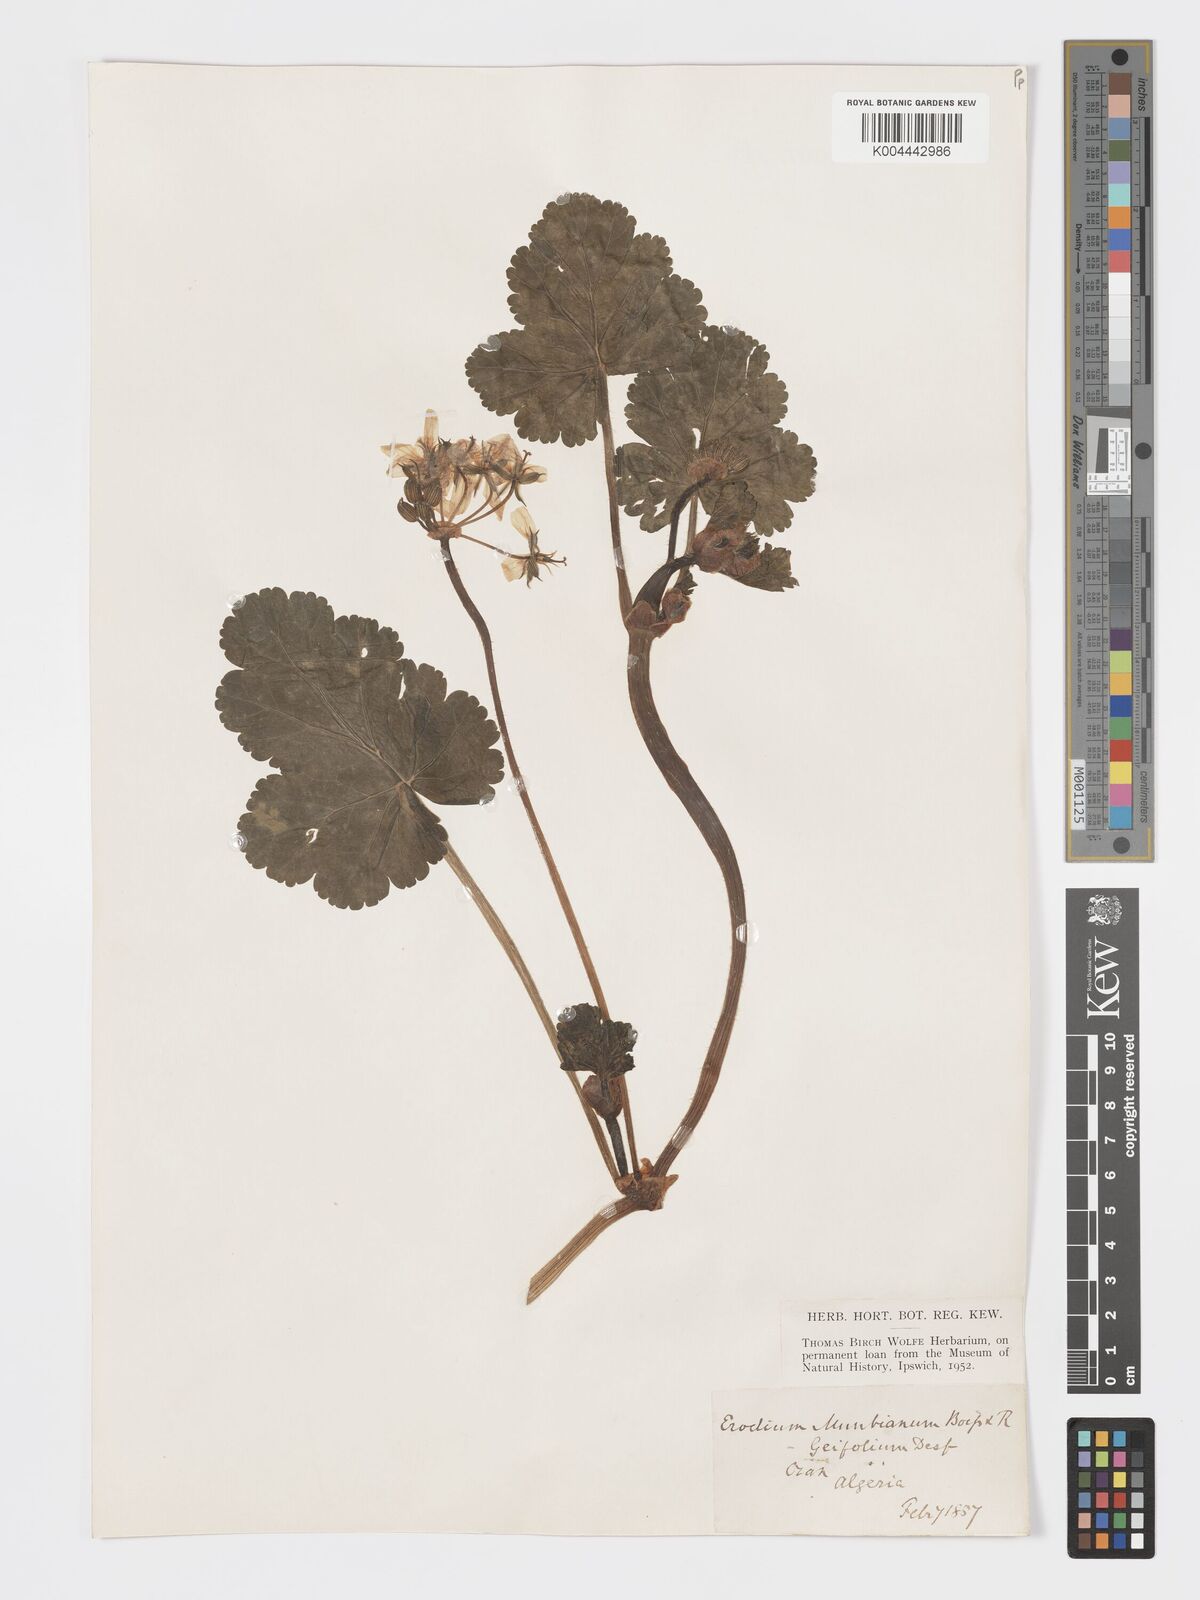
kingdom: Plantae
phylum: Tracheophyta
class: Magnoliopsida
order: Geraniales
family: Geraniaceae
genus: Erodium
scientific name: Erodium munbyanum
